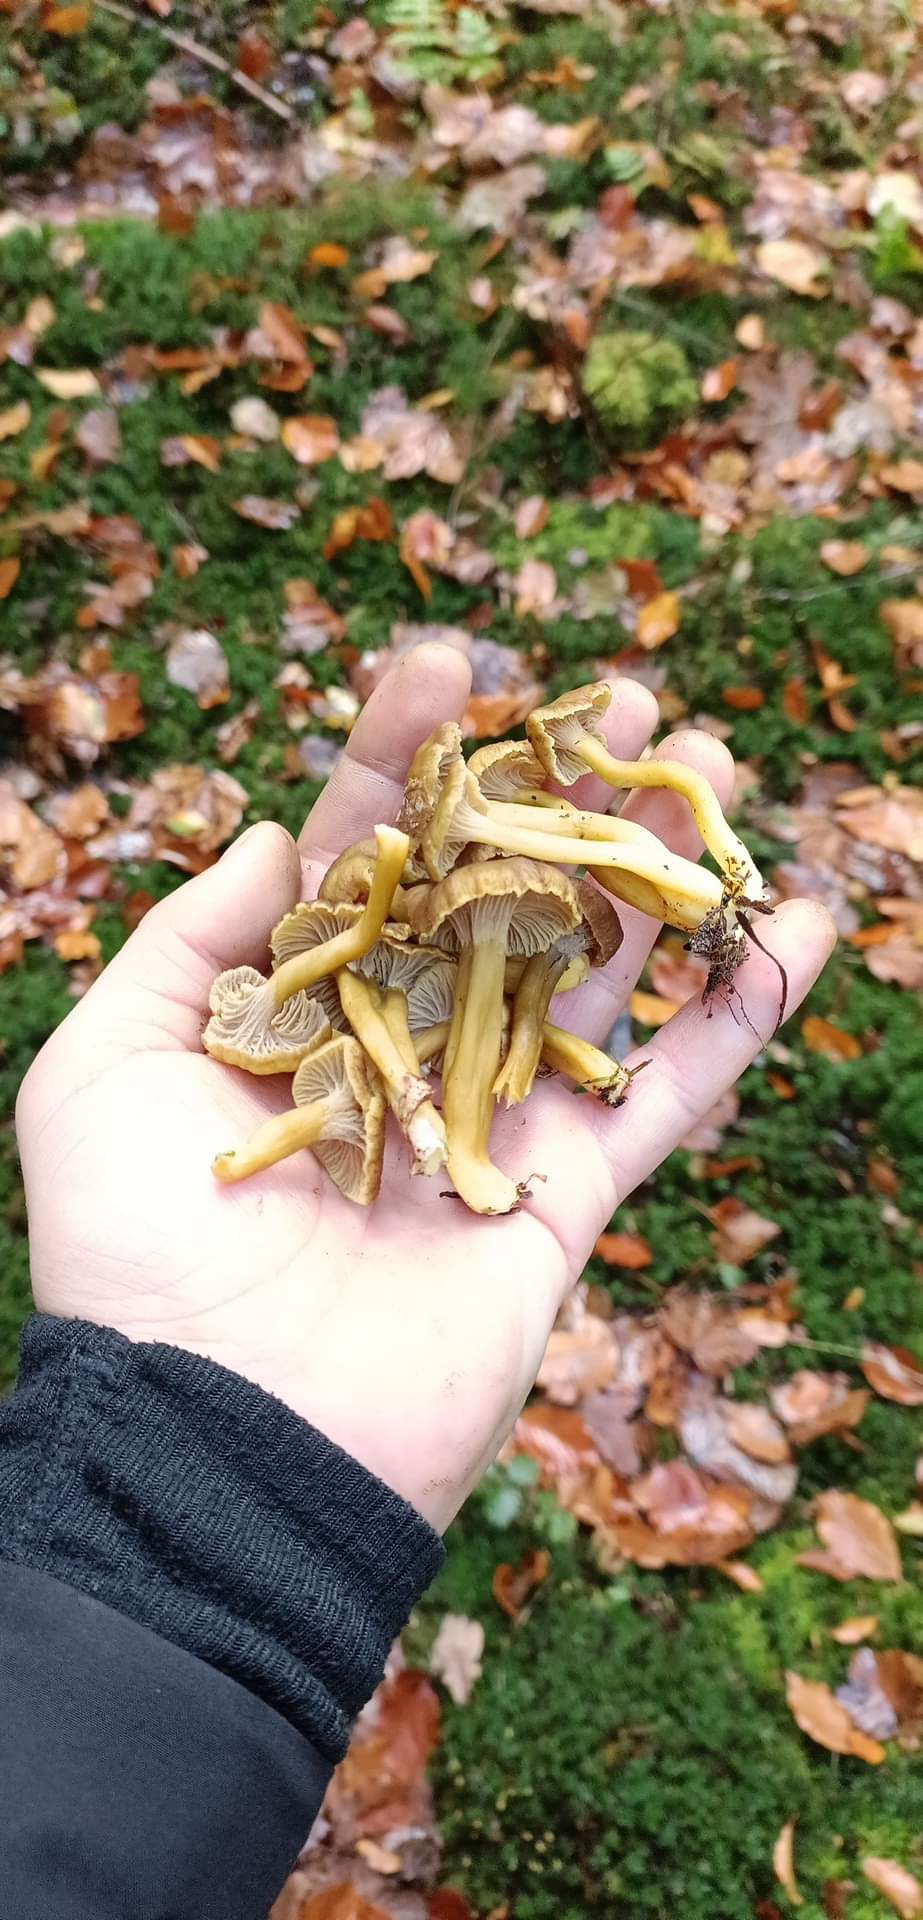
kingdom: Fungi
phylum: Basidiomycota
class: Agaricomycetes
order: Cantharellales
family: Hydnaceae
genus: Craterellus
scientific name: Craterellus tubaeformis
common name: tragt-kantarel
